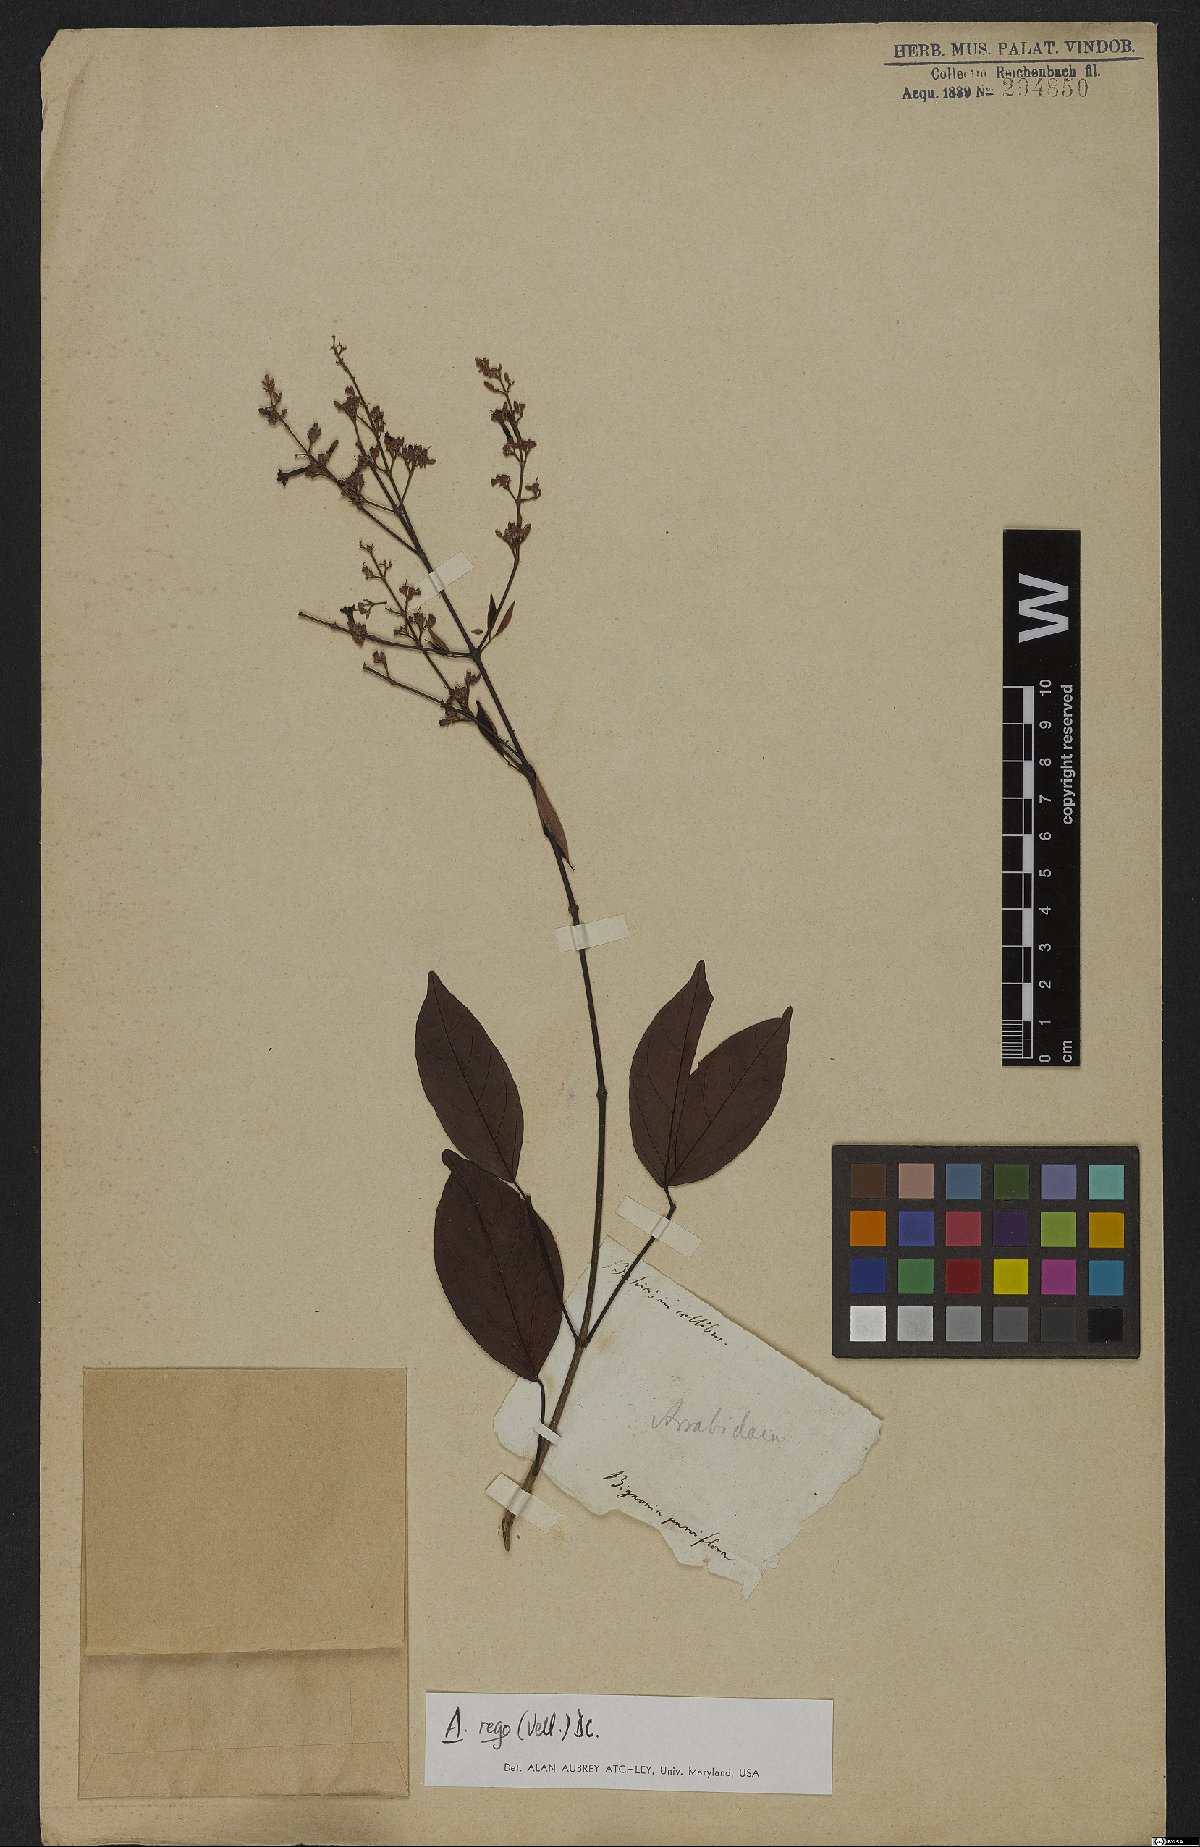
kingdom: Plantae
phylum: Tracheophyta
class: Magnoliopsida
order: Lamiales
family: Bignoniaceae
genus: Fridericia
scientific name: Fridericia rego
